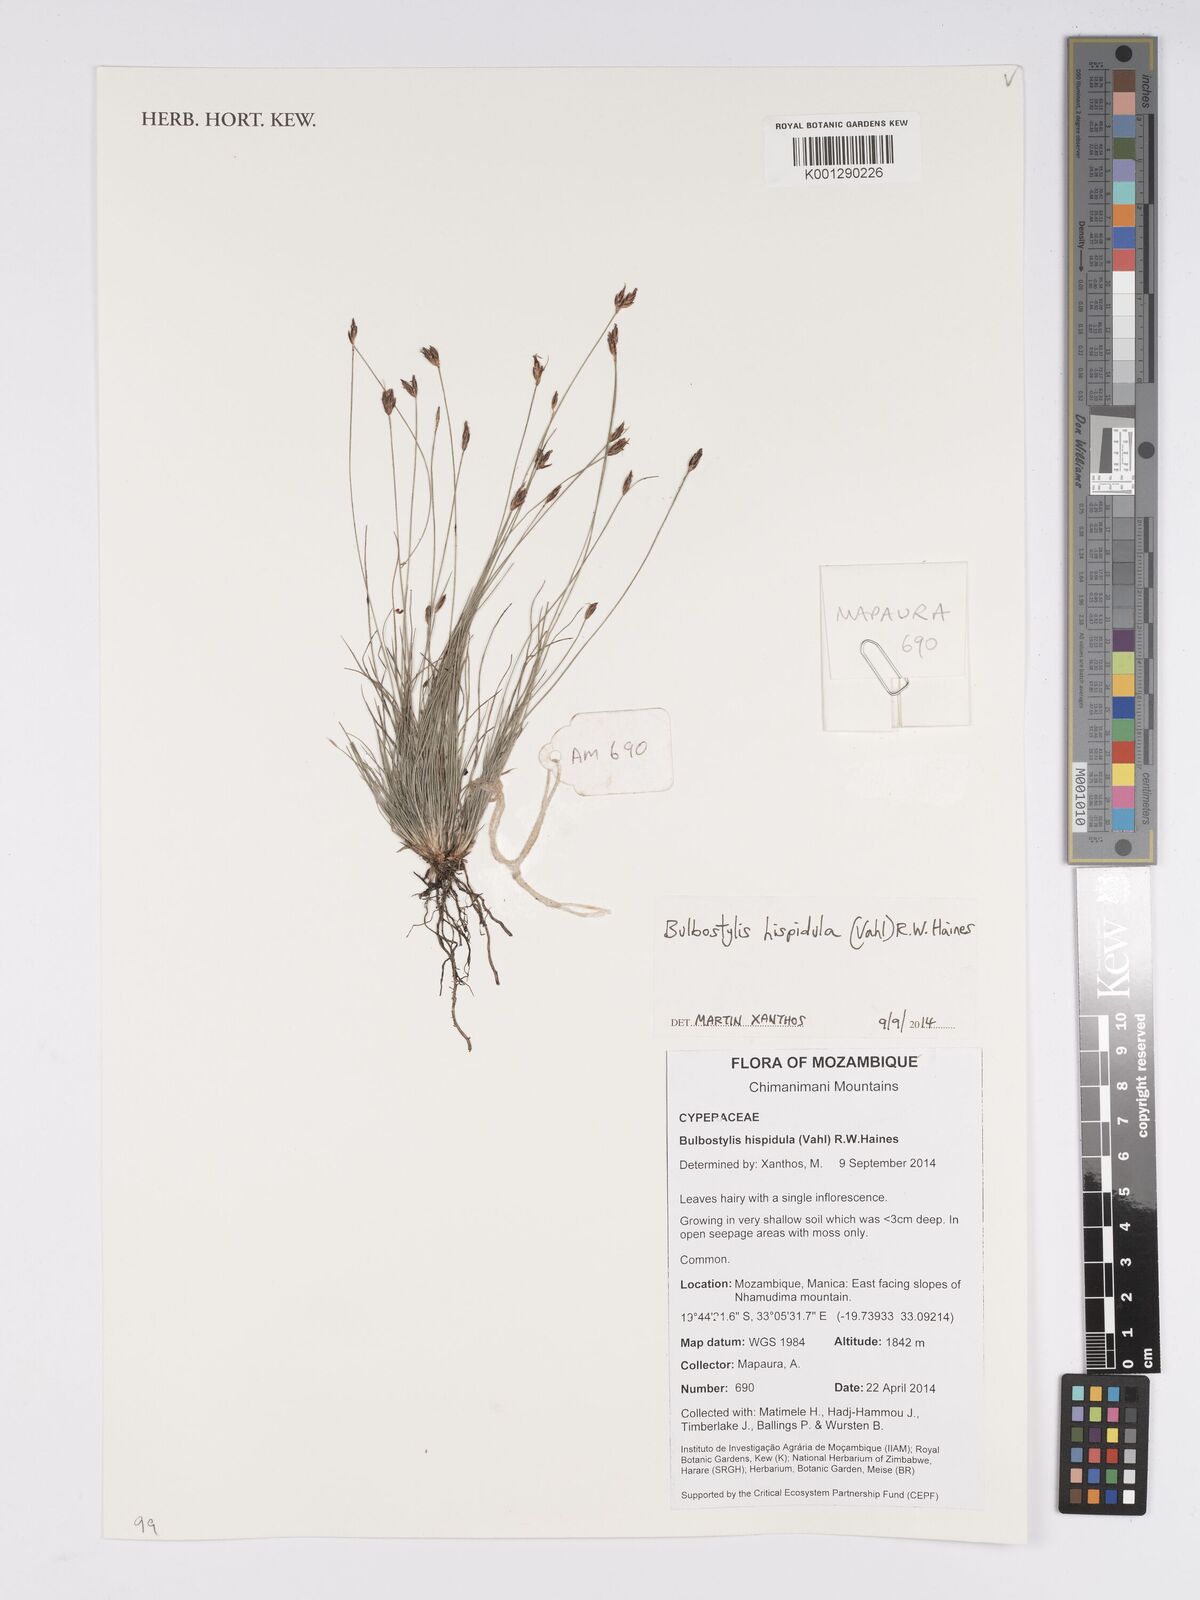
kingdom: Plantae
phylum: Tracheophyta
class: Liliopsida
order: Poales
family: Cyperaceae
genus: Bulbostylis
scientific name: Bulbostylis hispidula
